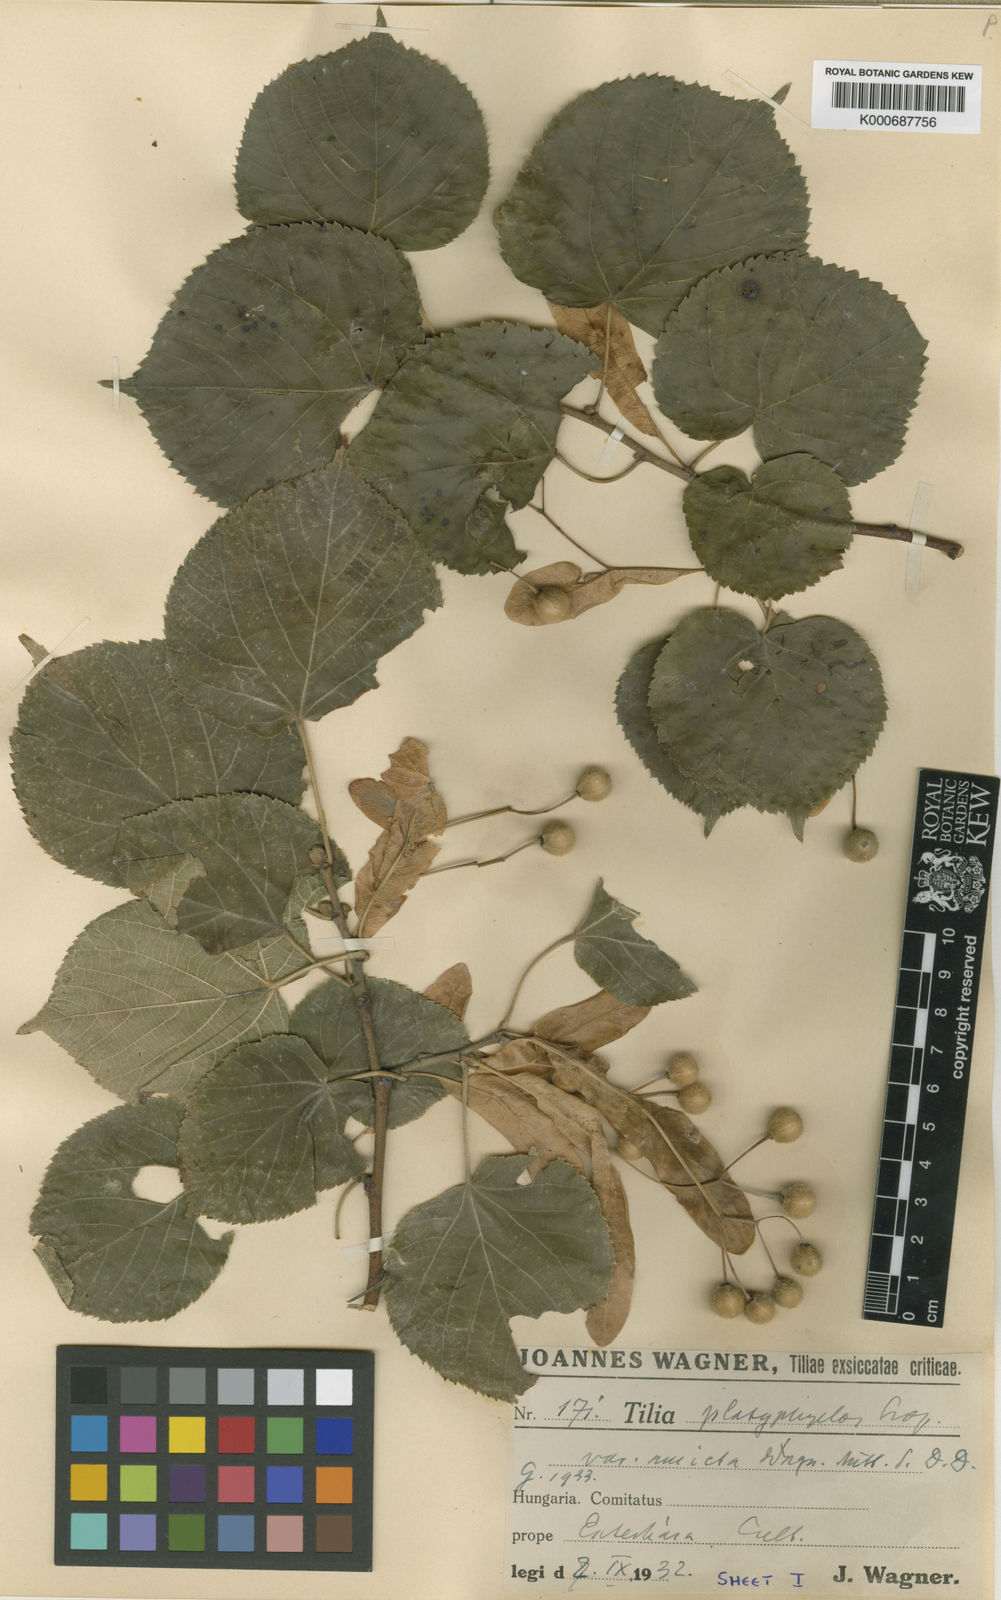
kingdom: Plantae
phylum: Tracheophyta
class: Magnoliopsida
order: Malvales
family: Malvaceae
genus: Tilia
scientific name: Tilia platyphyllos
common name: Large-leaved lime
